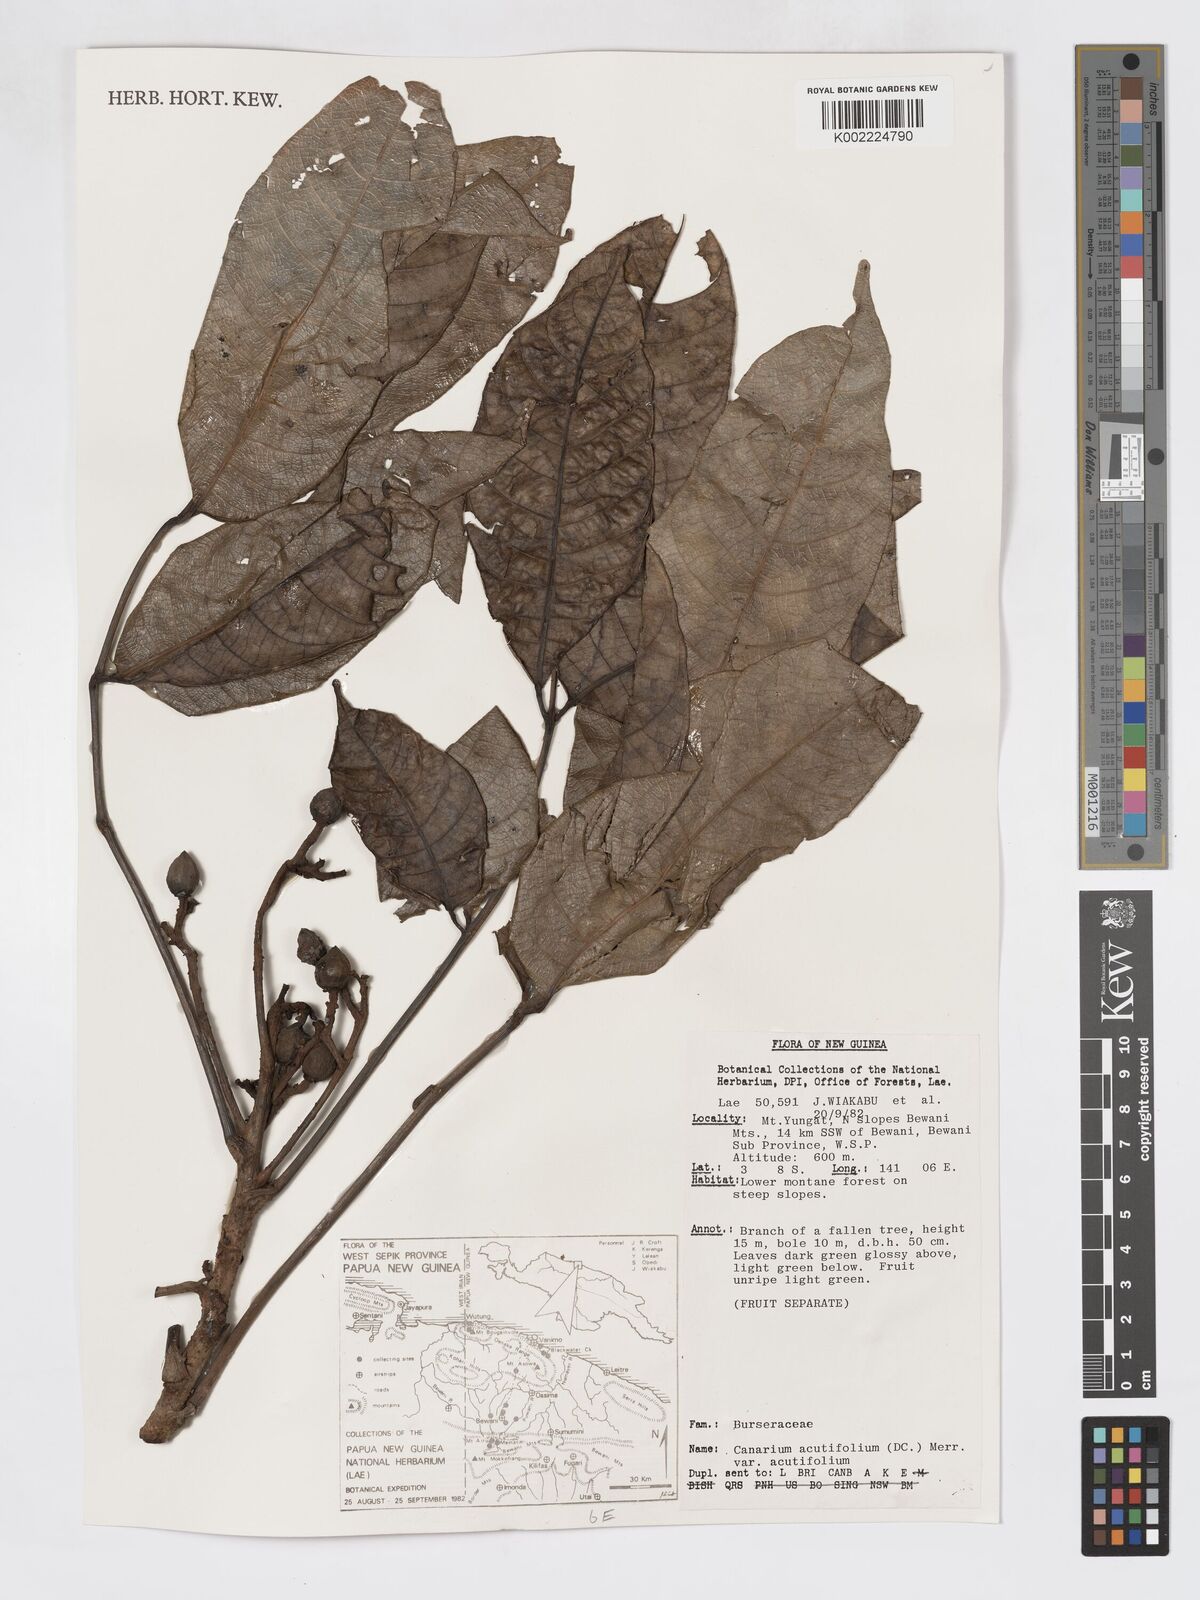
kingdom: Plantae
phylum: Tracheophyta
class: Magnoliopsida
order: Sapindales
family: Burseraceae
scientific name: Burseraceae
